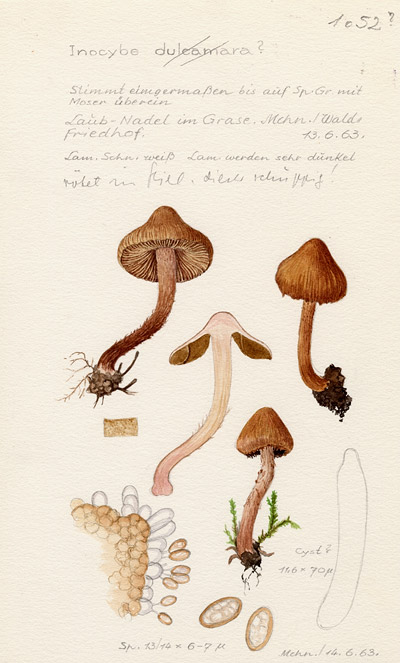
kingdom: Fungi
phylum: Basidiomycota
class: Agaricomycetes
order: Agaricales
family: Inocybaceae
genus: Inosperma
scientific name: Inosperma bongardii
